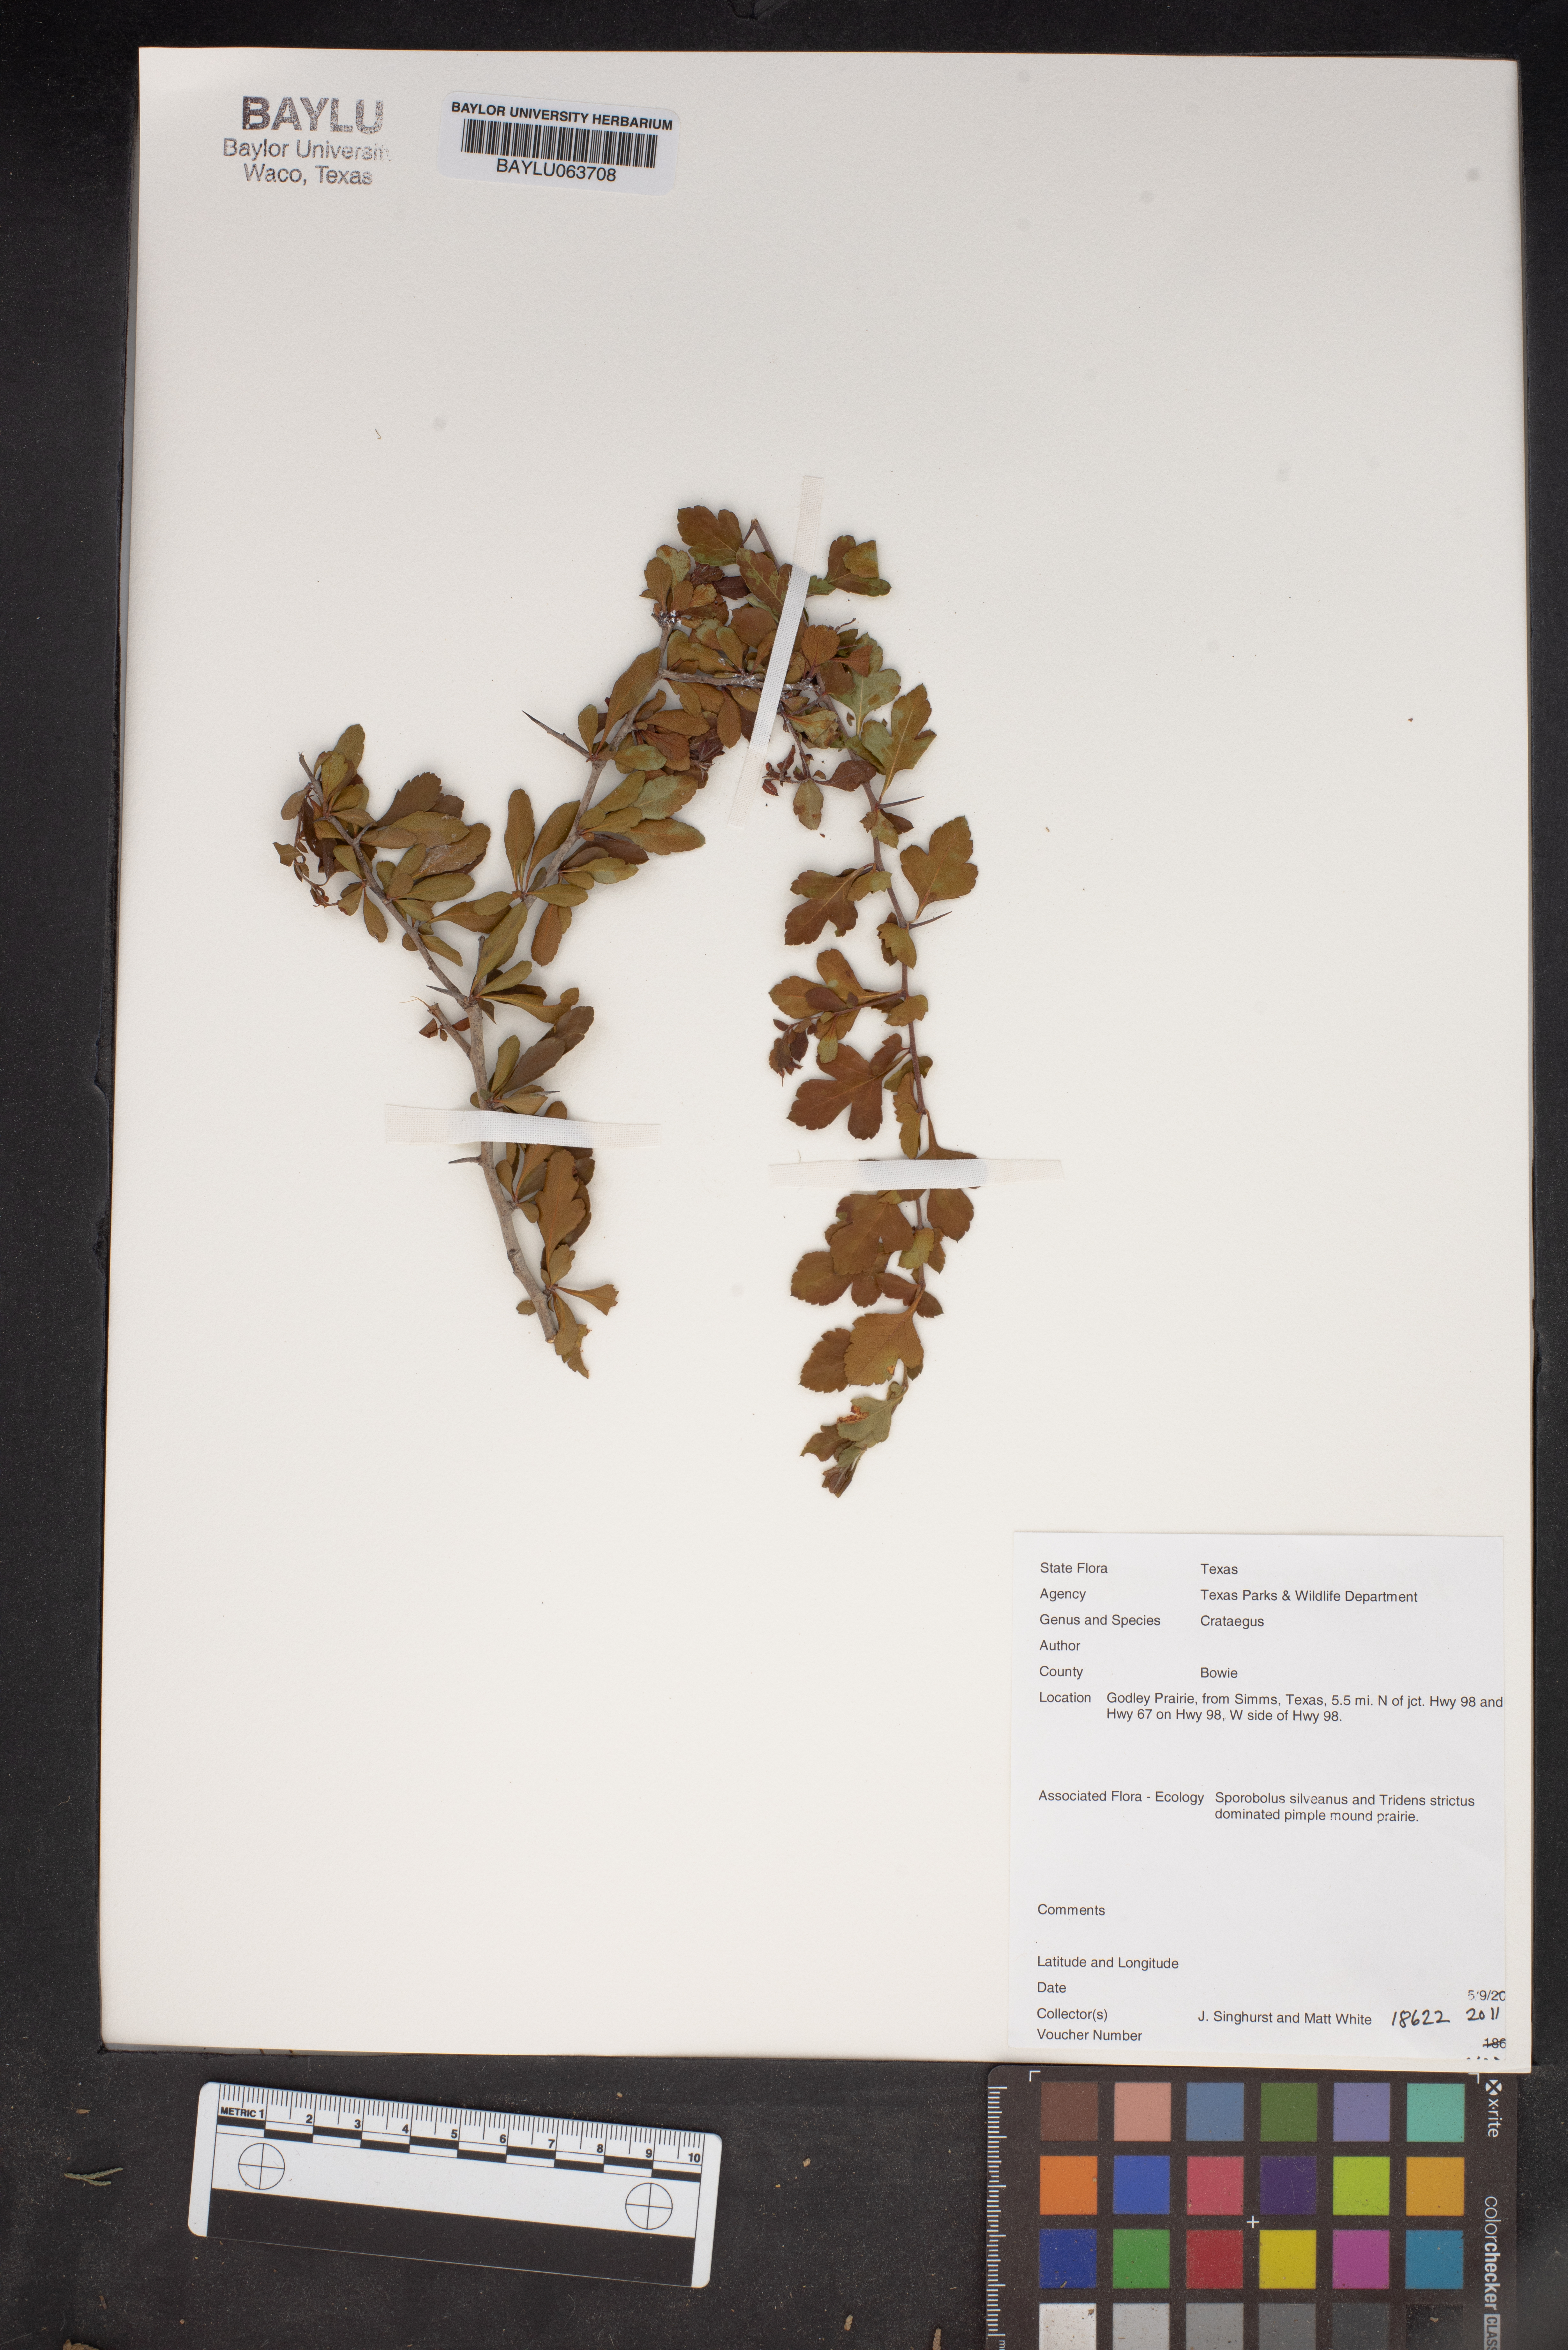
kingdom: Plantae
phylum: Tracheophyta
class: Magnoliopsida
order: Rosales
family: Rosaceae
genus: Crataegus
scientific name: Crataegus
